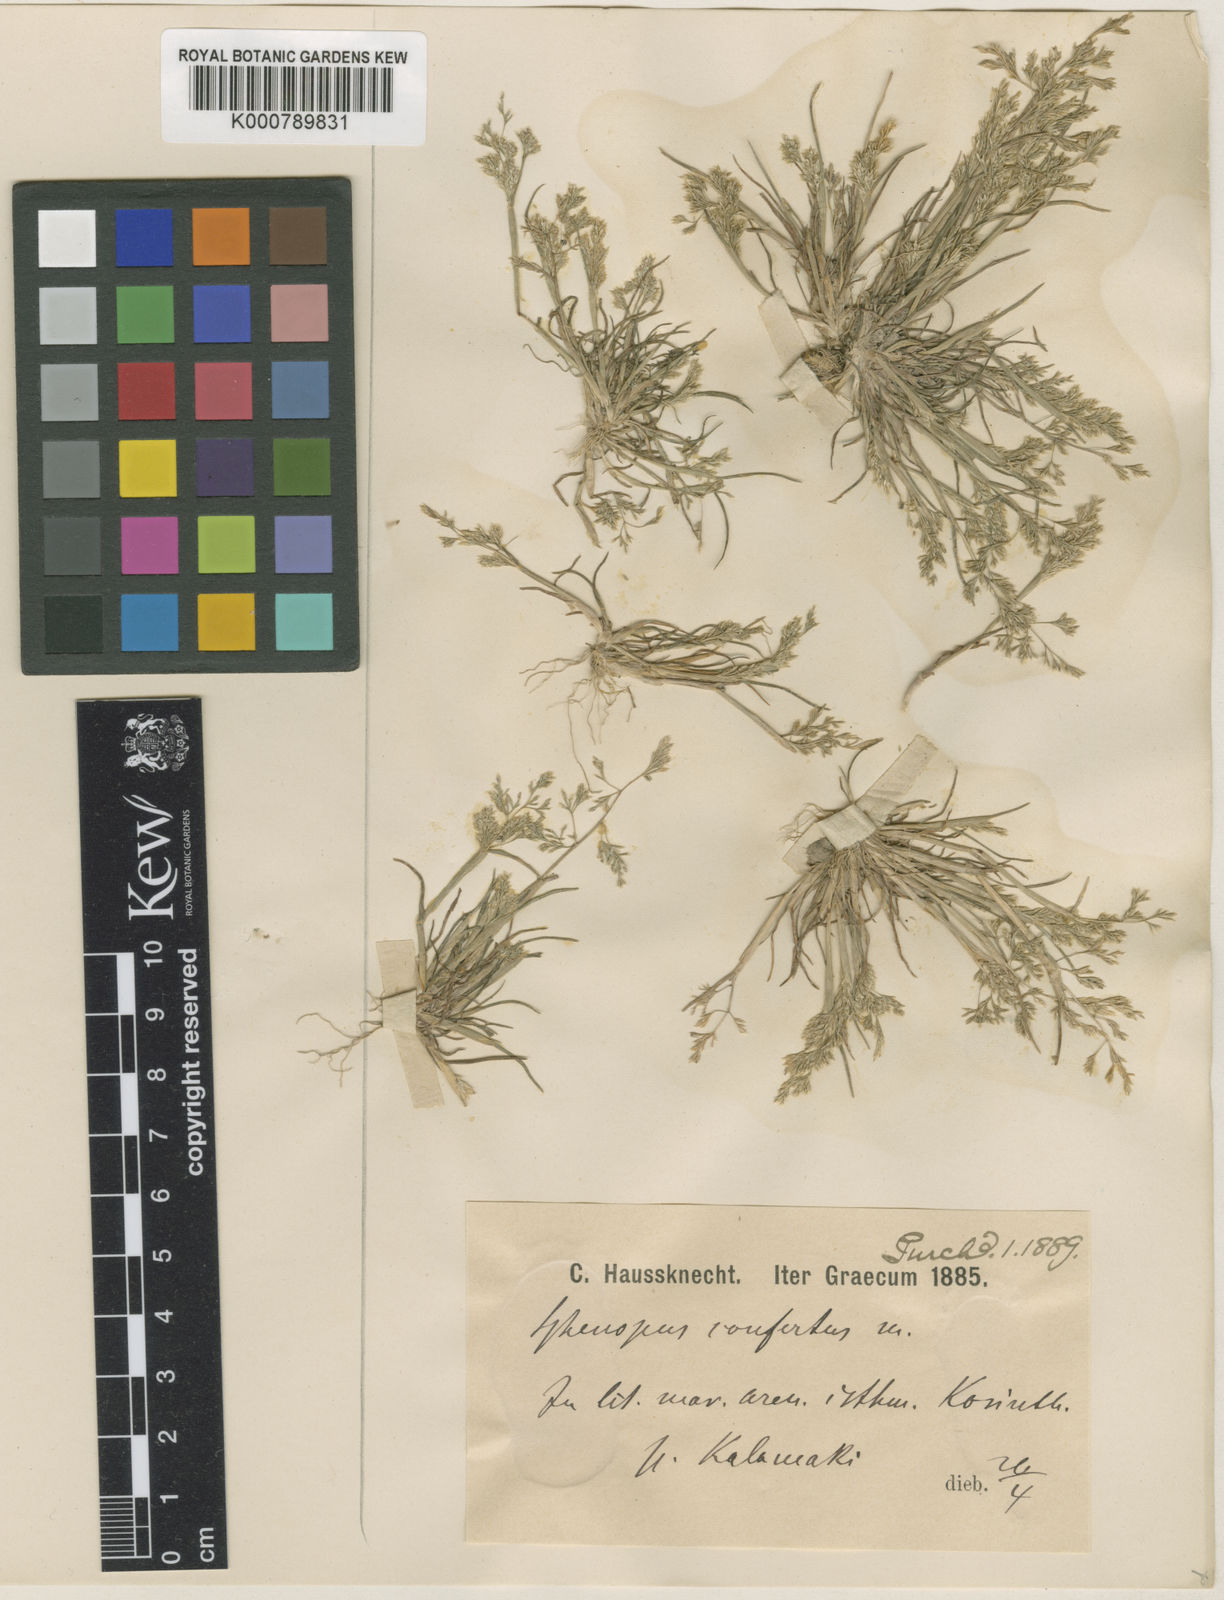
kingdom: Plantae
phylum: Tracheophyta
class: Liliopsida
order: Poales
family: Poaceae
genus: Sphenopus
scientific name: Sphenopus divaricatus
